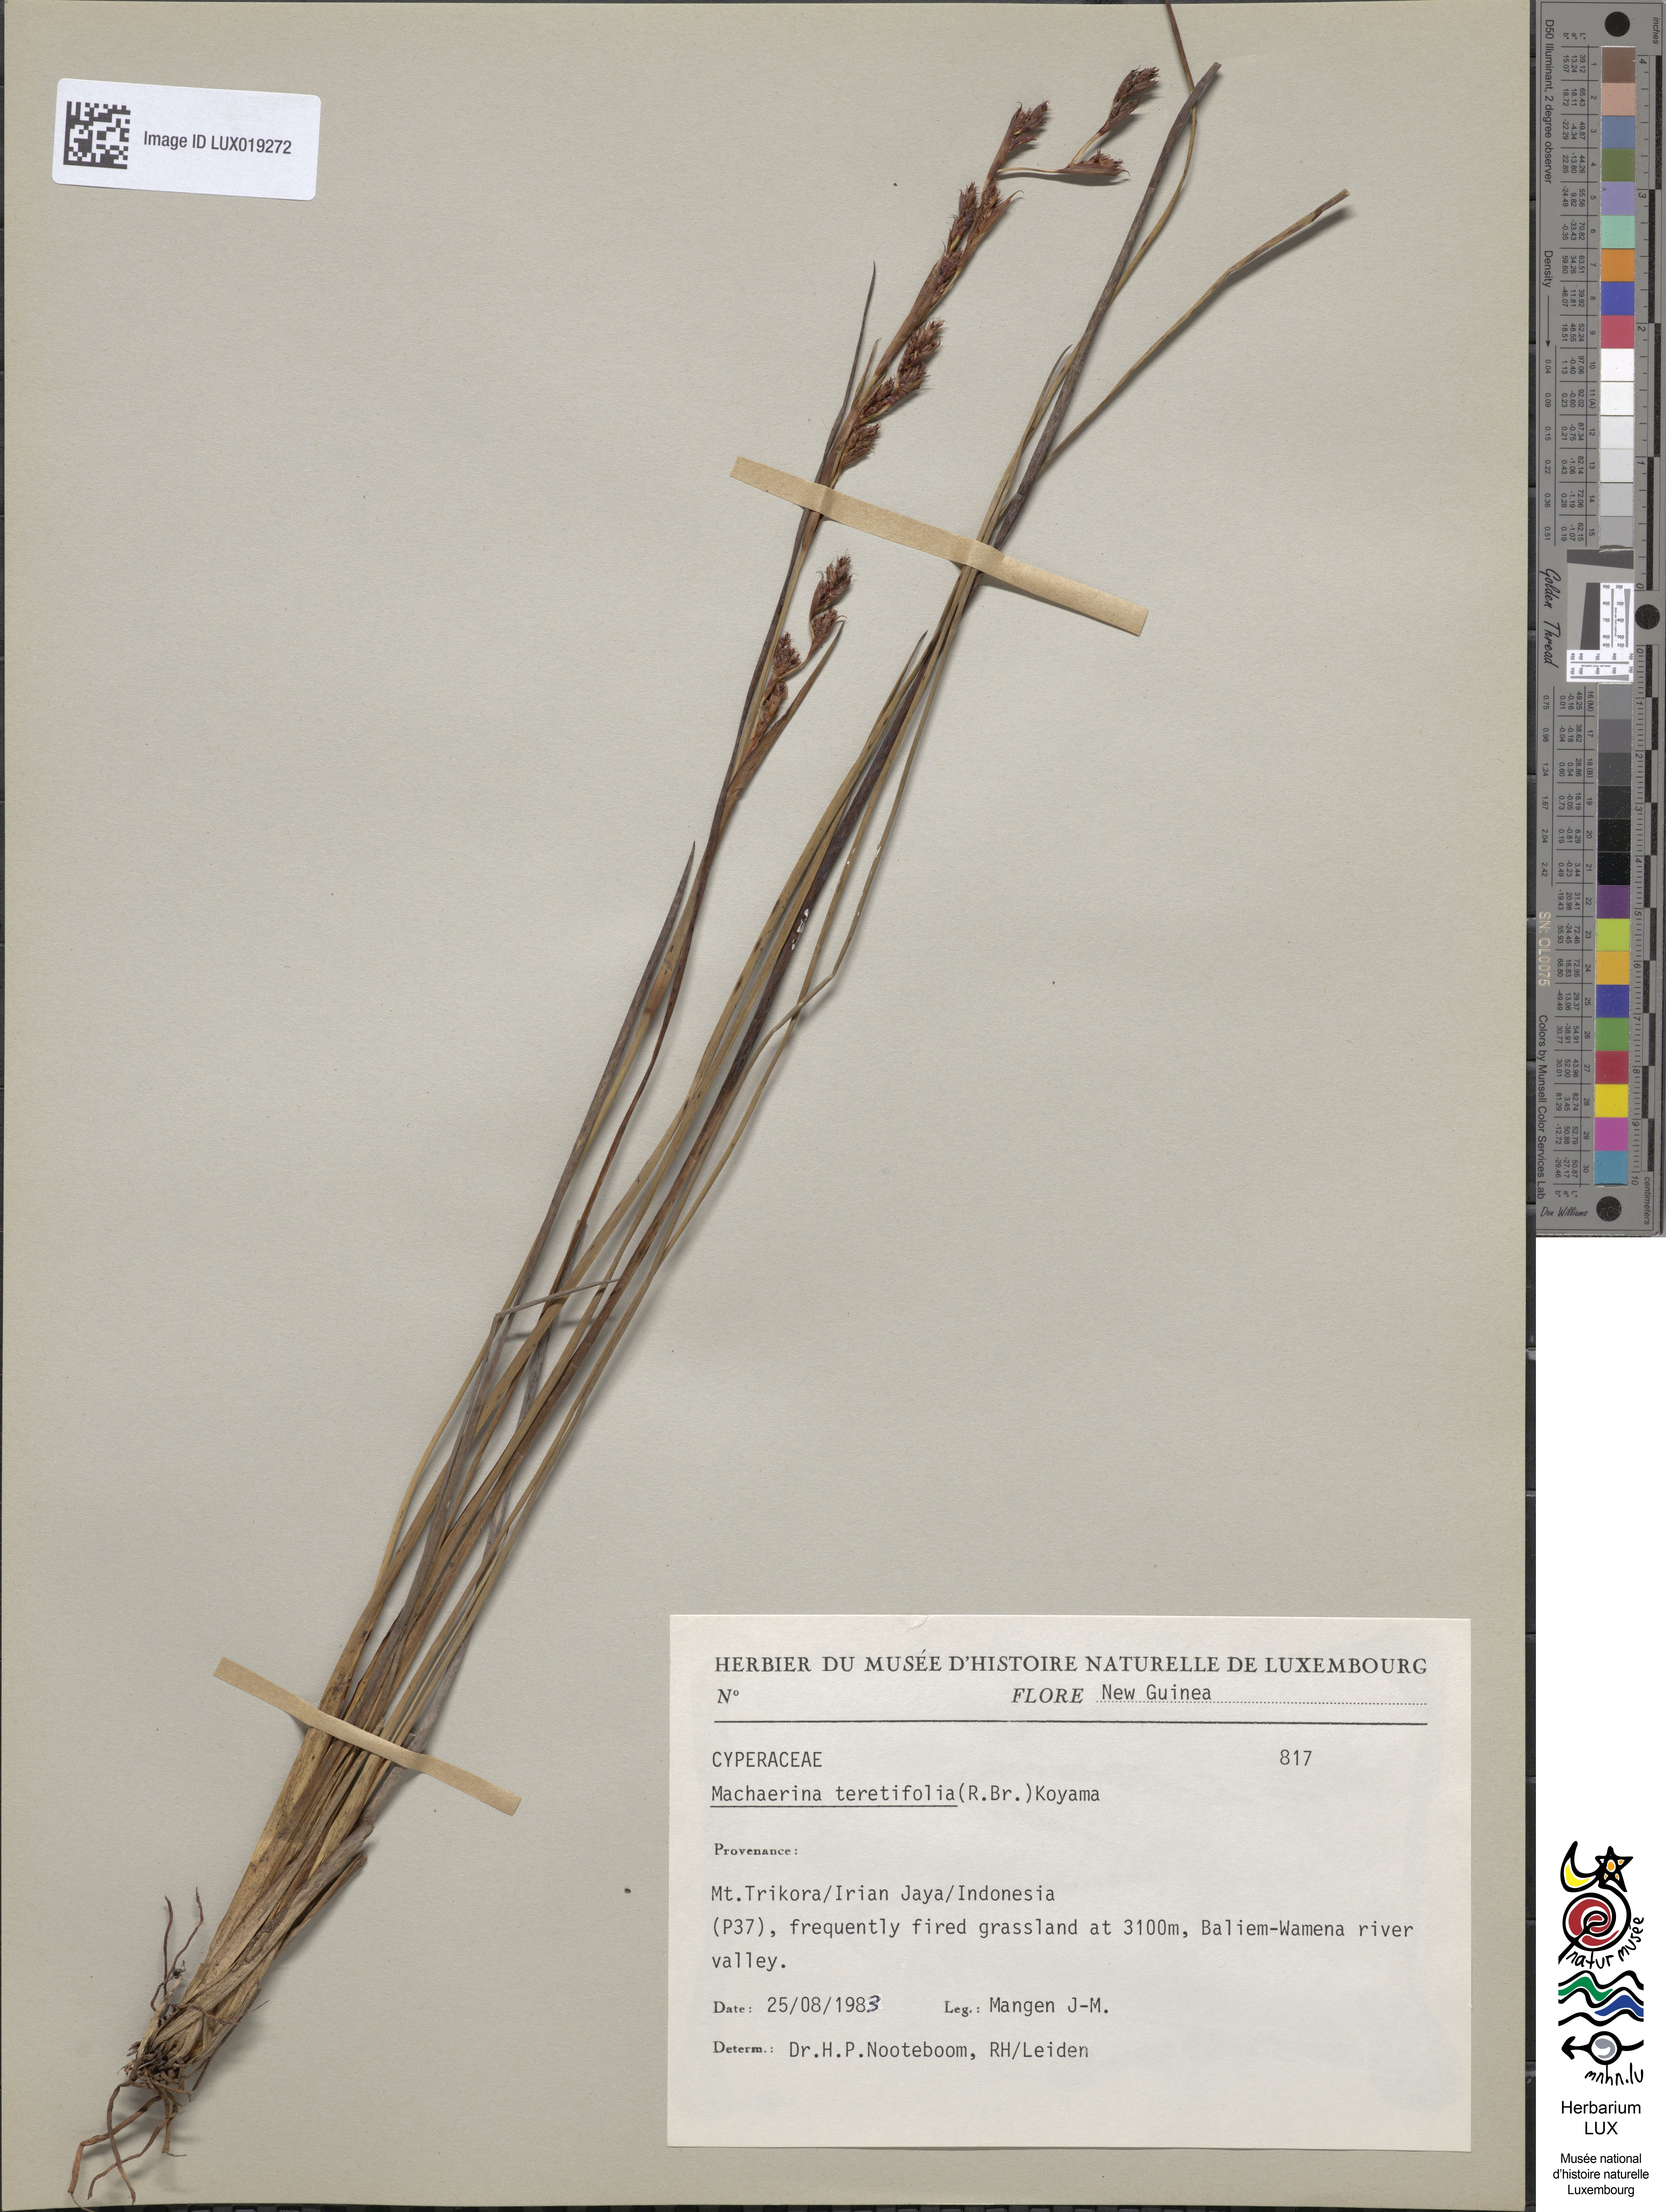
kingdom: Plantae
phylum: Tracheophyta
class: Liliopsida
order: Poales
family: Cyperaceae
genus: Machaerina
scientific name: Machaerina teretifolia
